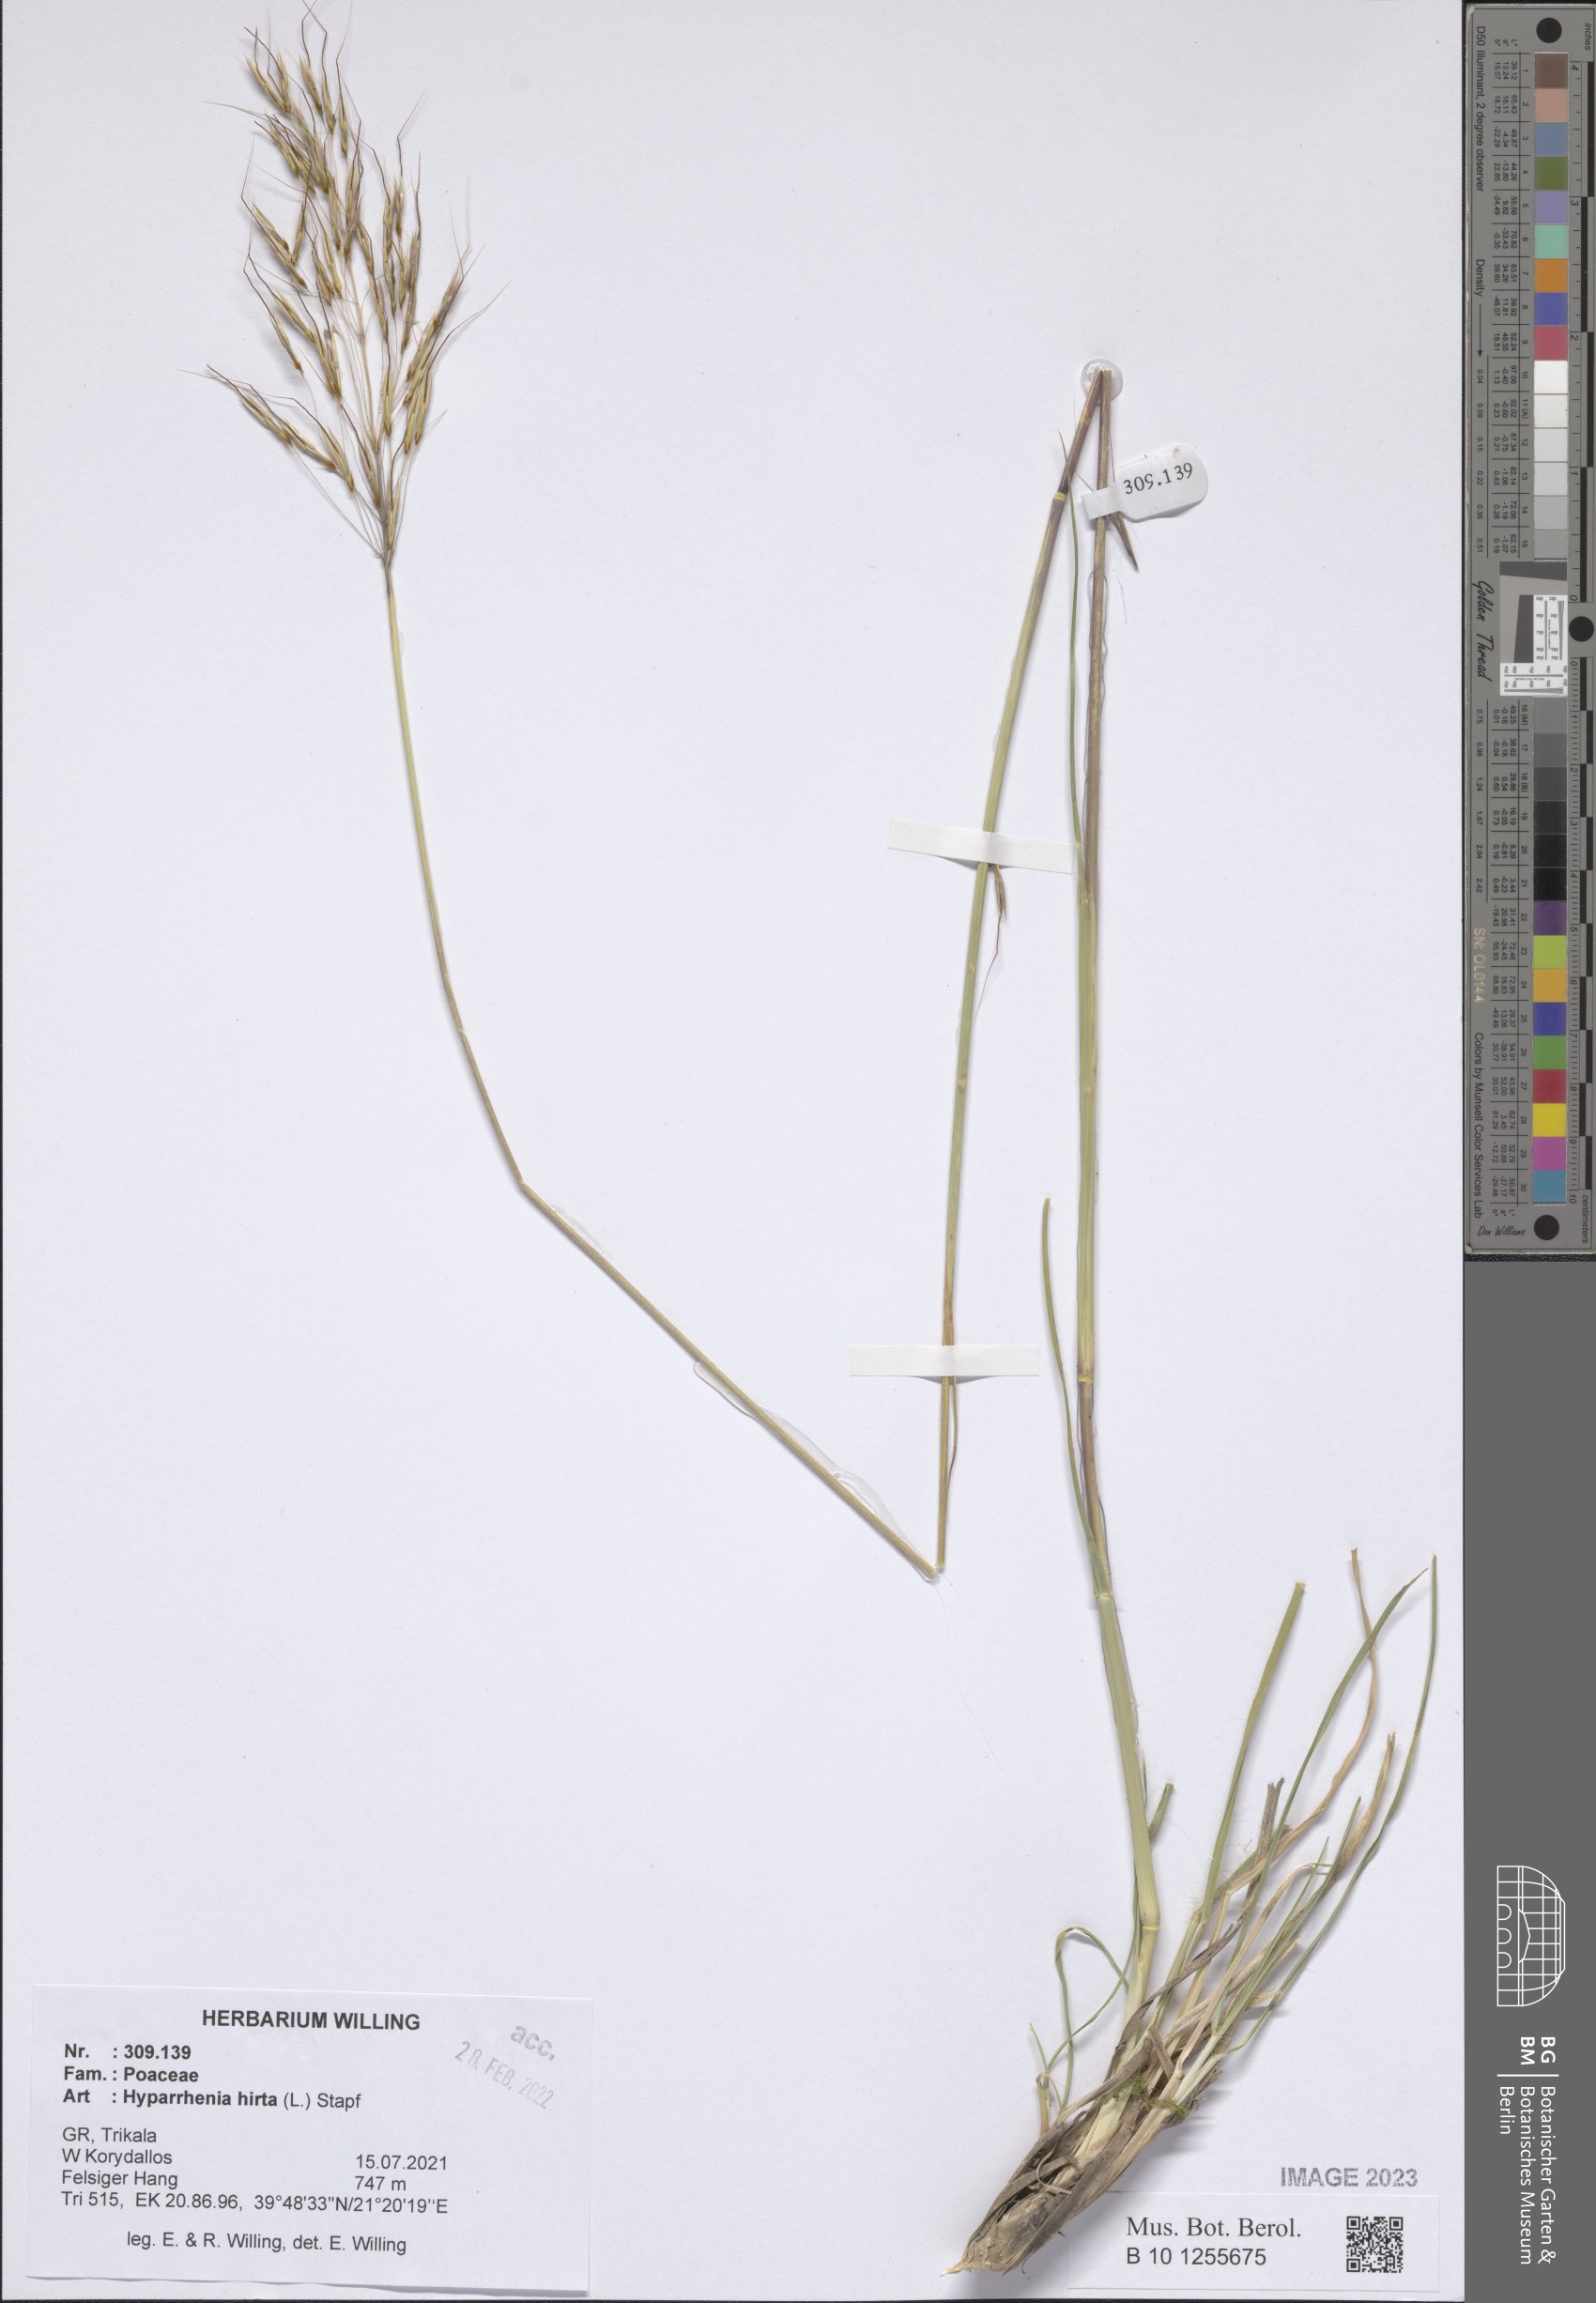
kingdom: Plantae
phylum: Tracheophyta
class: Liliopsida
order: Poales
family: Poaceae
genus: Hyparrhenia
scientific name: Hyparrhenia hirta
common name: Thatching grass
